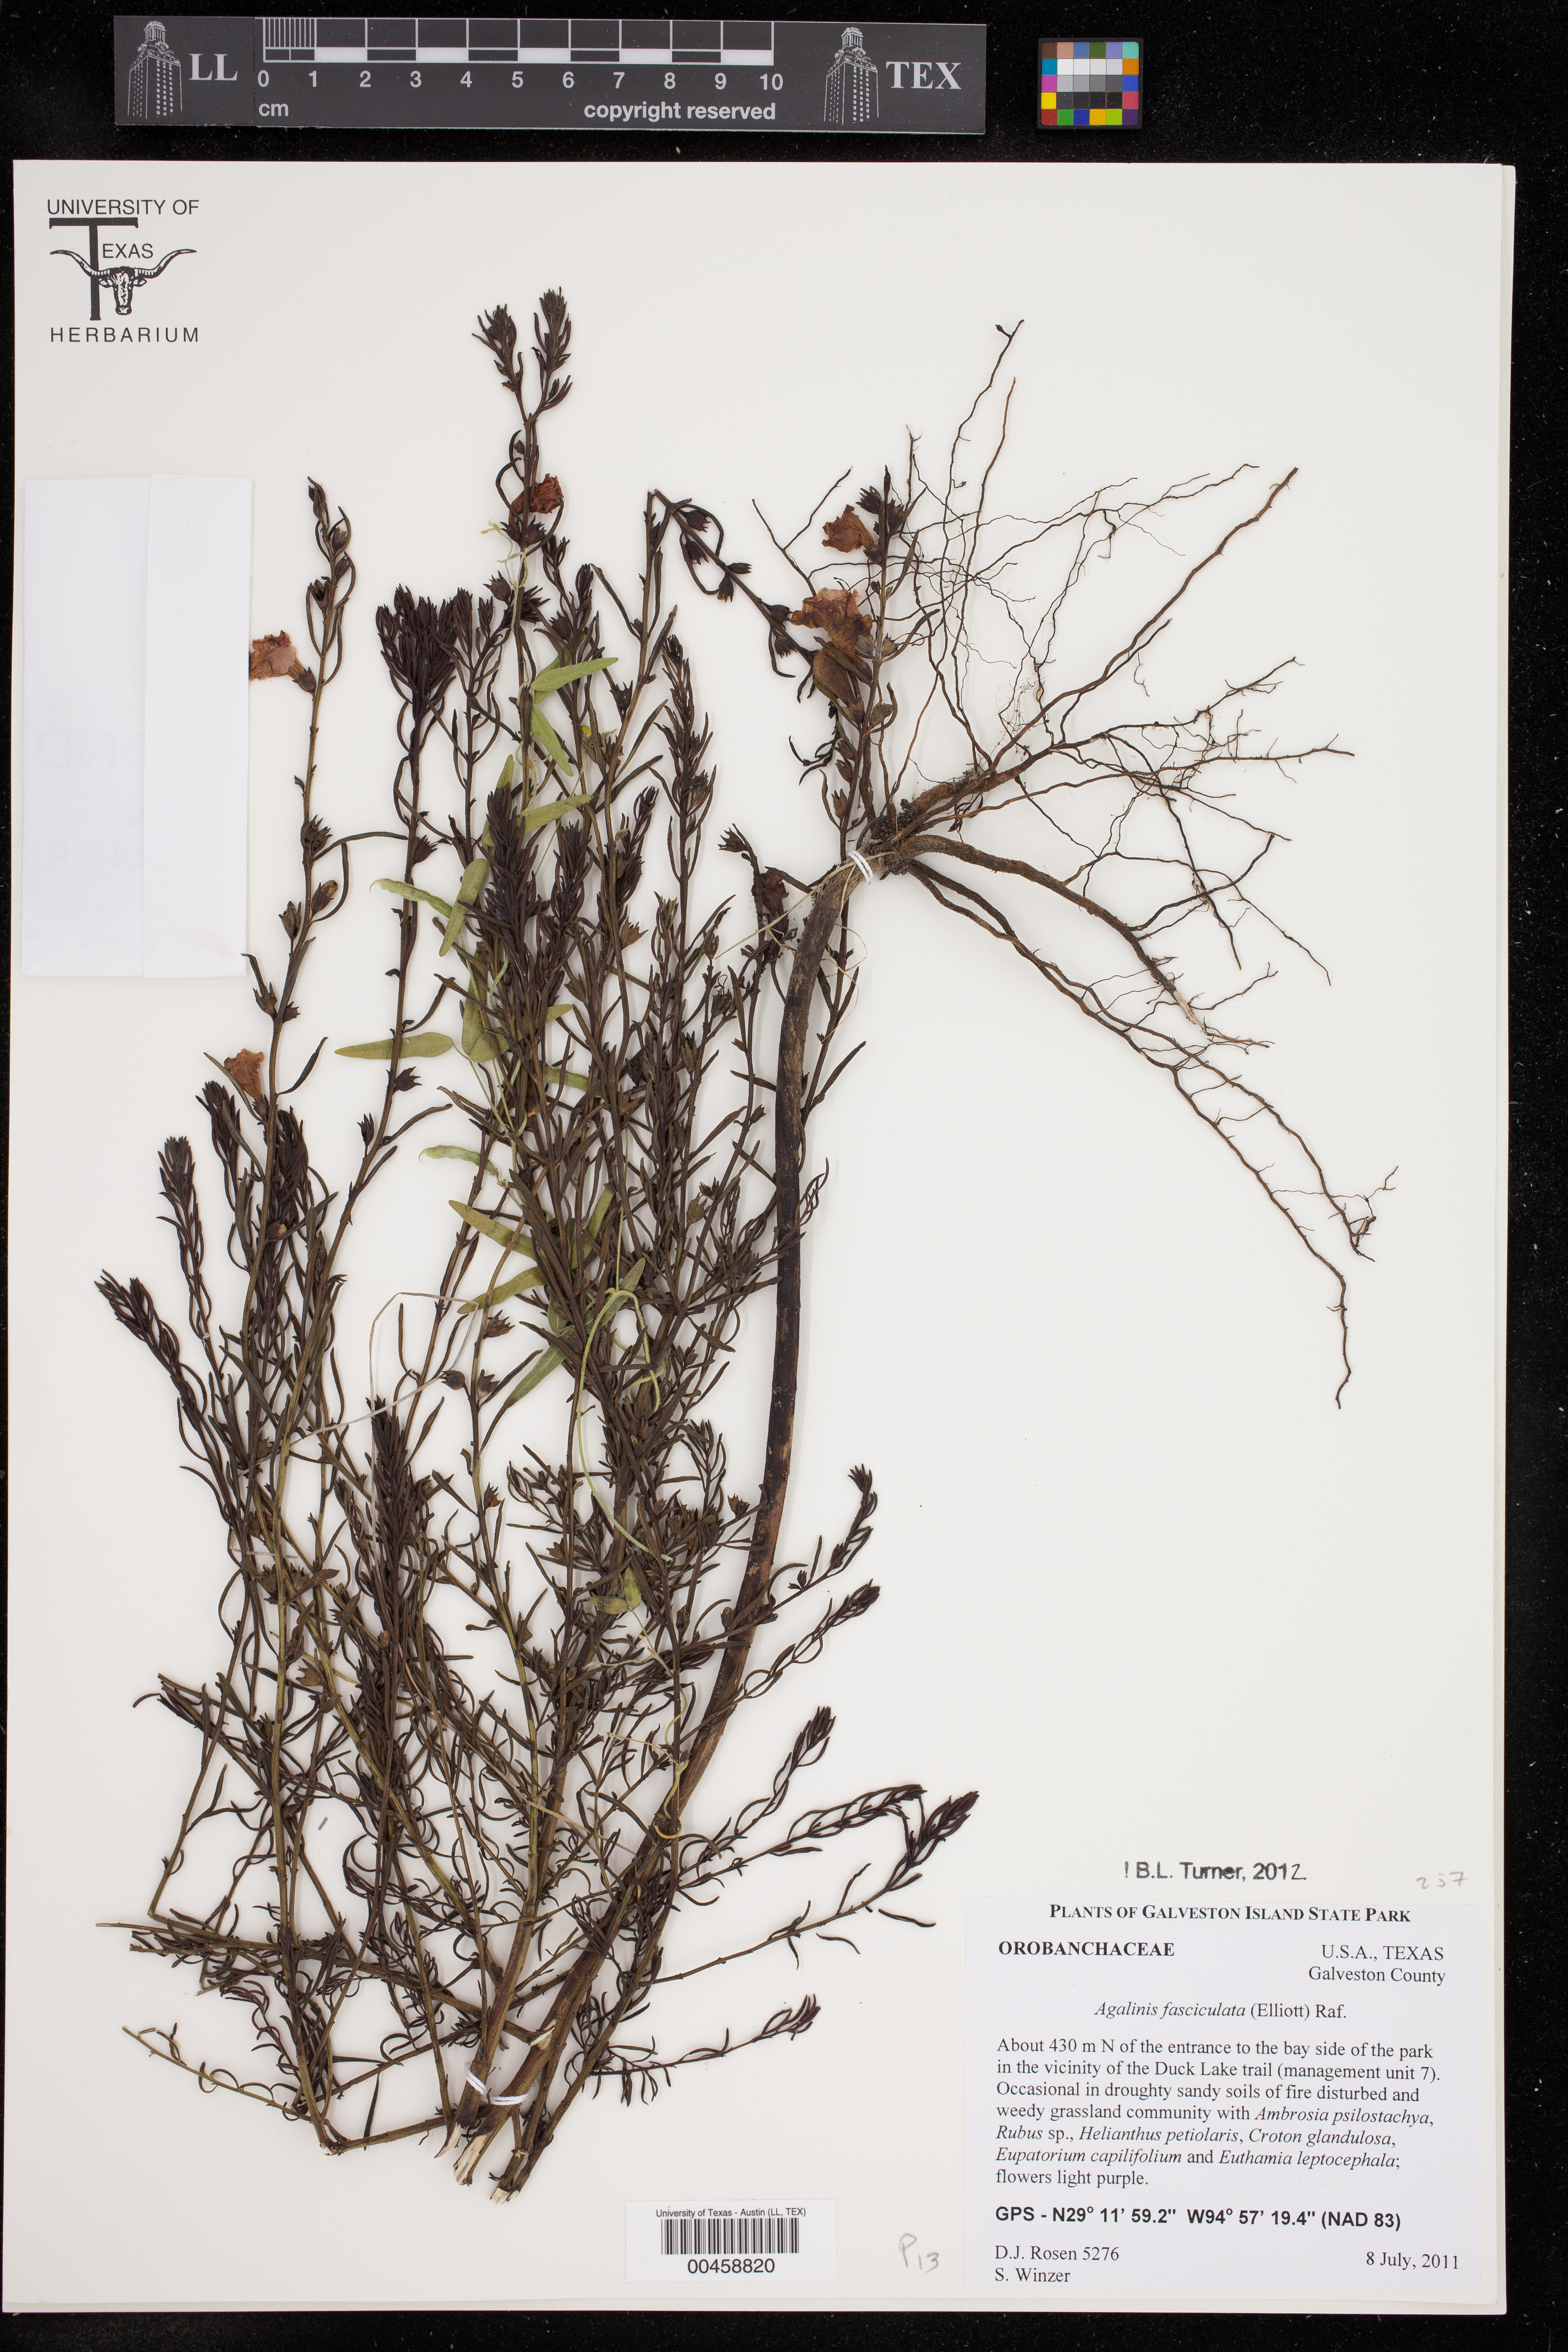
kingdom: Plantae
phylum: Tracheophyta
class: Magnoliopsida
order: Lamiales
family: Orobanchaceae
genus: Agalinis
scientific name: Agalinis fasciculata
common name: Beach false foxglove
